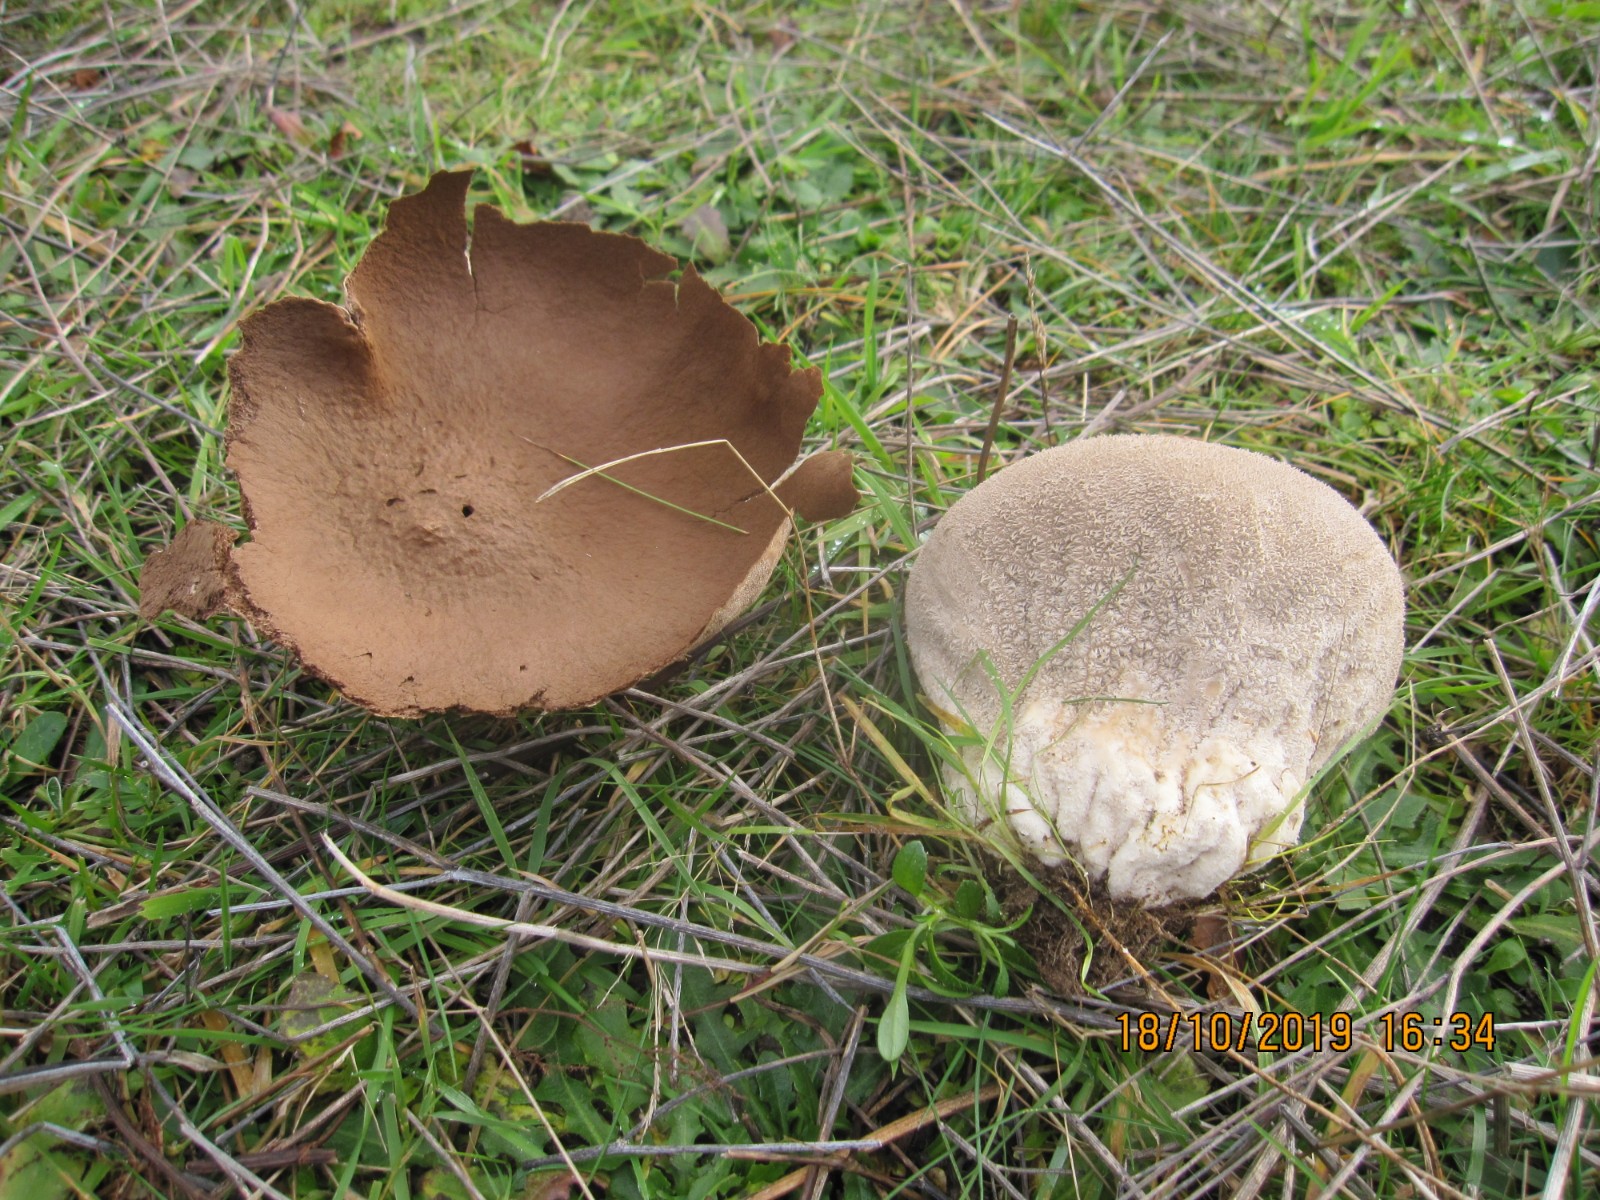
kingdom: Fungi
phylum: Basidiomycota
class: Agaricomycetes
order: Agaricales
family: Lycoperdaceae
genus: Bovistella
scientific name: Bovistella utriformis
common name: skællet støvbold
